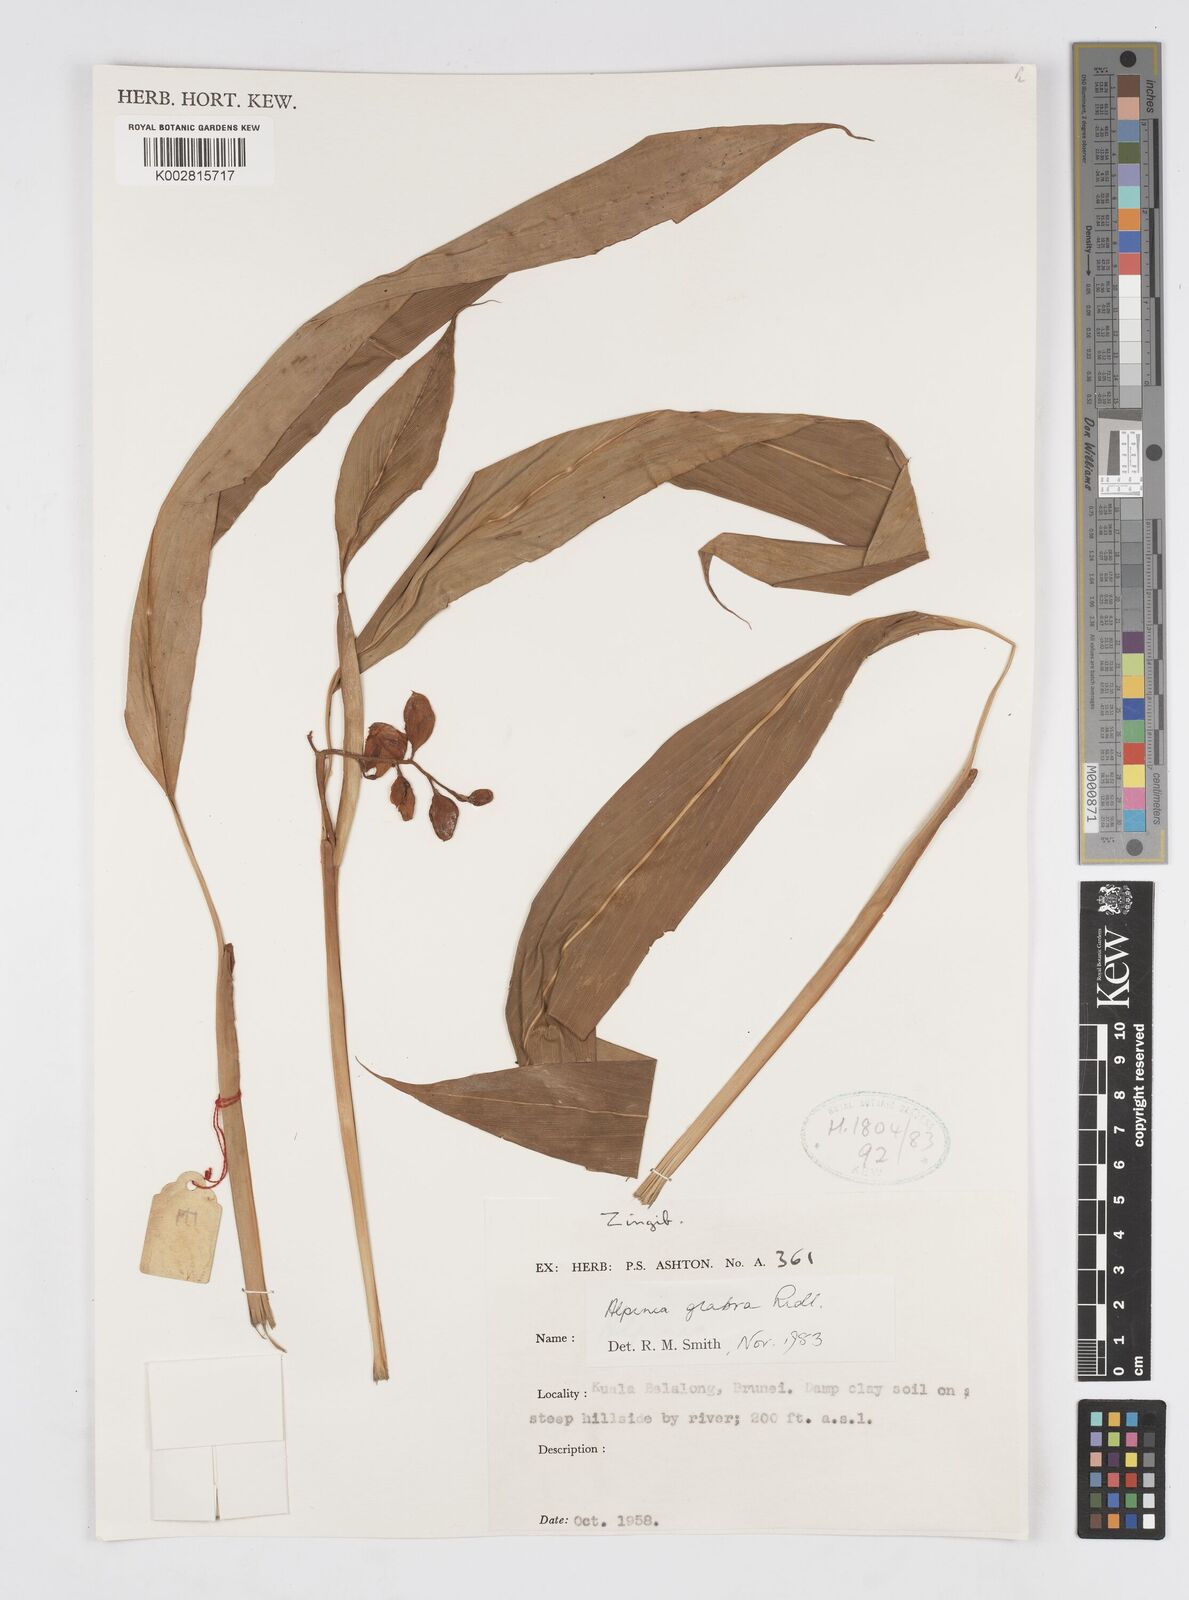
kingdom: Plantae
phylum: Tracheophyta
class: Liliopsida
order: Zingiberales
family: Zingiberaceae
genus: Alpinia
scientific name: Alpinia glabra
